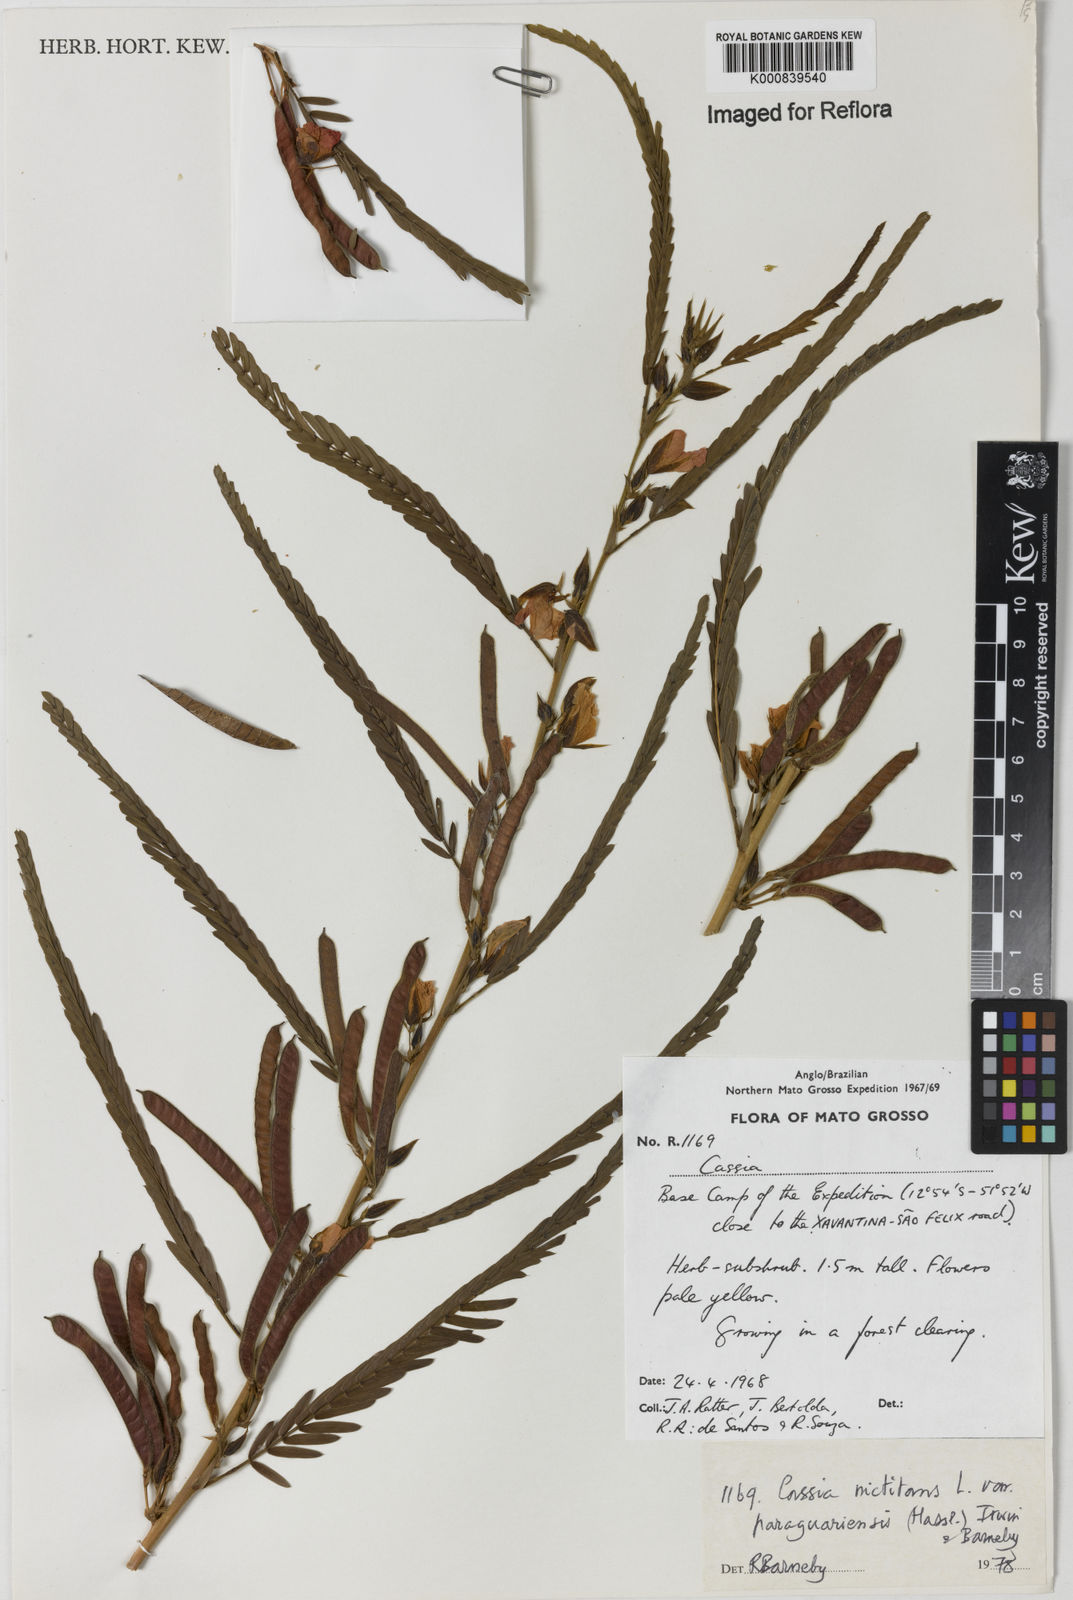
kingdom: Plantae
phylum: Tracheophyta
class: Magnoliopsida
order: Fabales
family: Fabaceae
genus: Chamaecrista
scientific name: Chamaecrista nictitans
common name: Sensitive cassia
